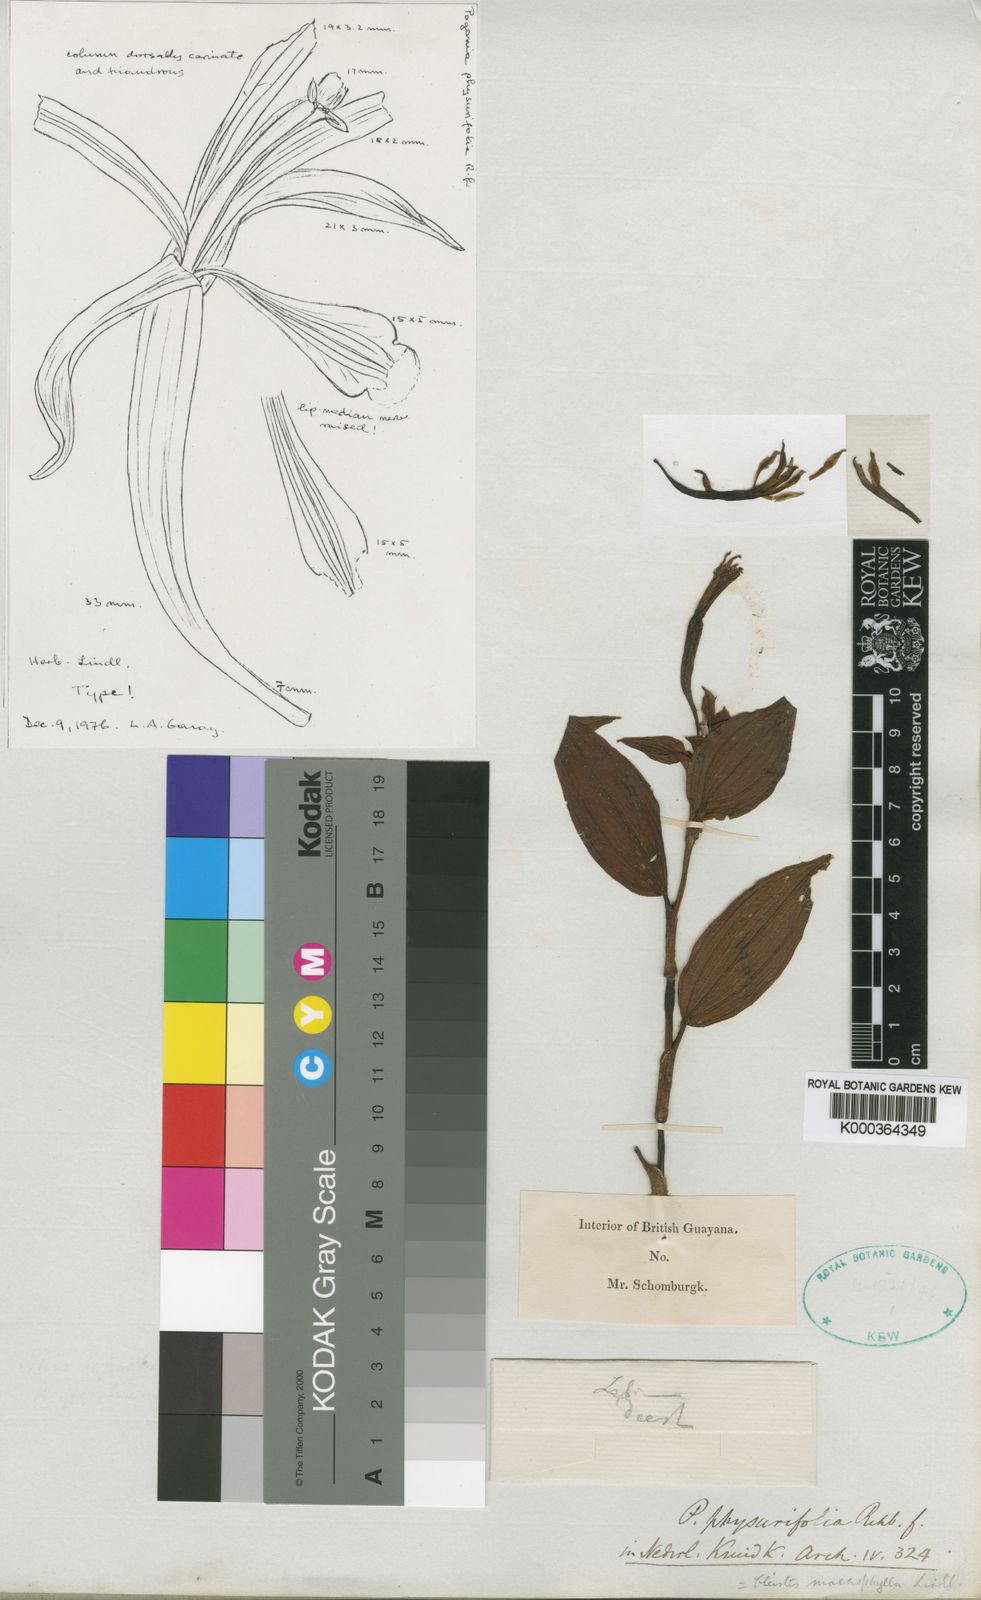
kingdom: Plantae
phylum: Tracheophyta
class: Liliopsida
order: Asparagales
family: Orchidaceae
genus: Psilochilus
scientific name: Psilochilus
